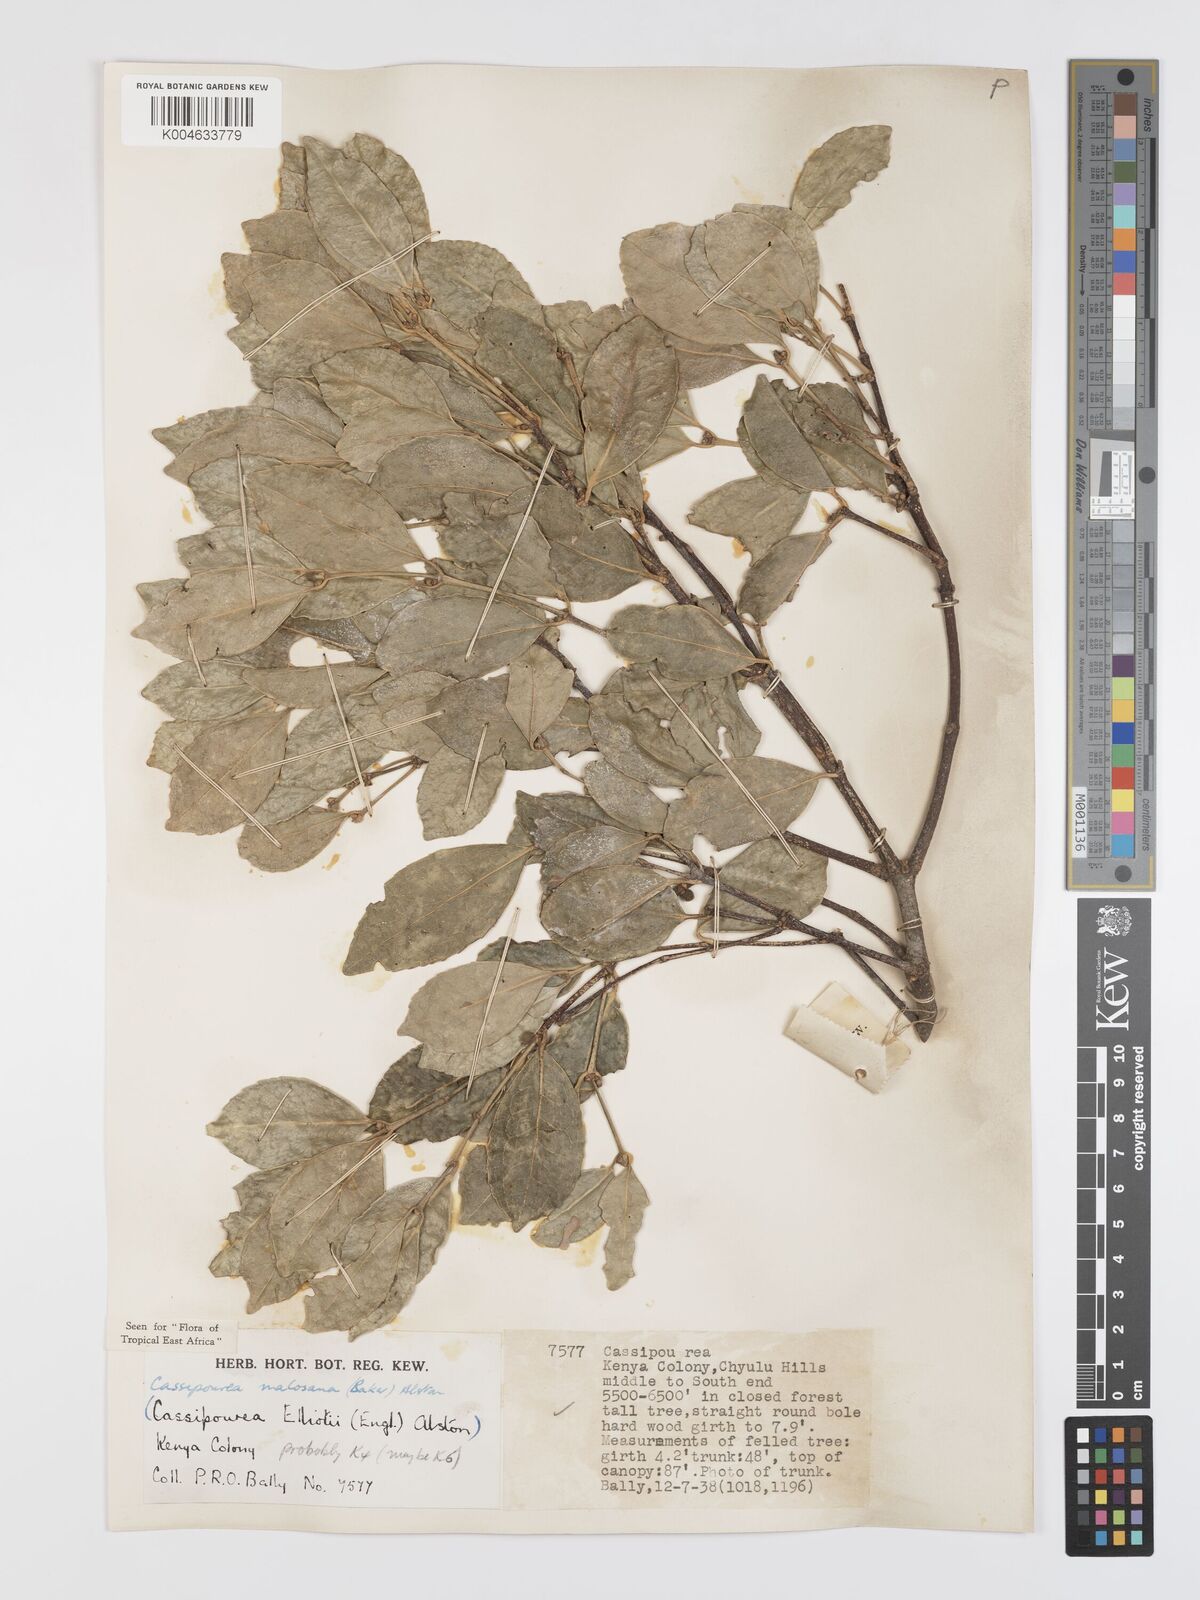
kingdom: Plantae
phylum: Tracheophyta
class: Magnoliopsida
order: Malpighiales
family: Rhizophoraceae
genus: Cassipourea
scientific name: Cassipourea malosana
